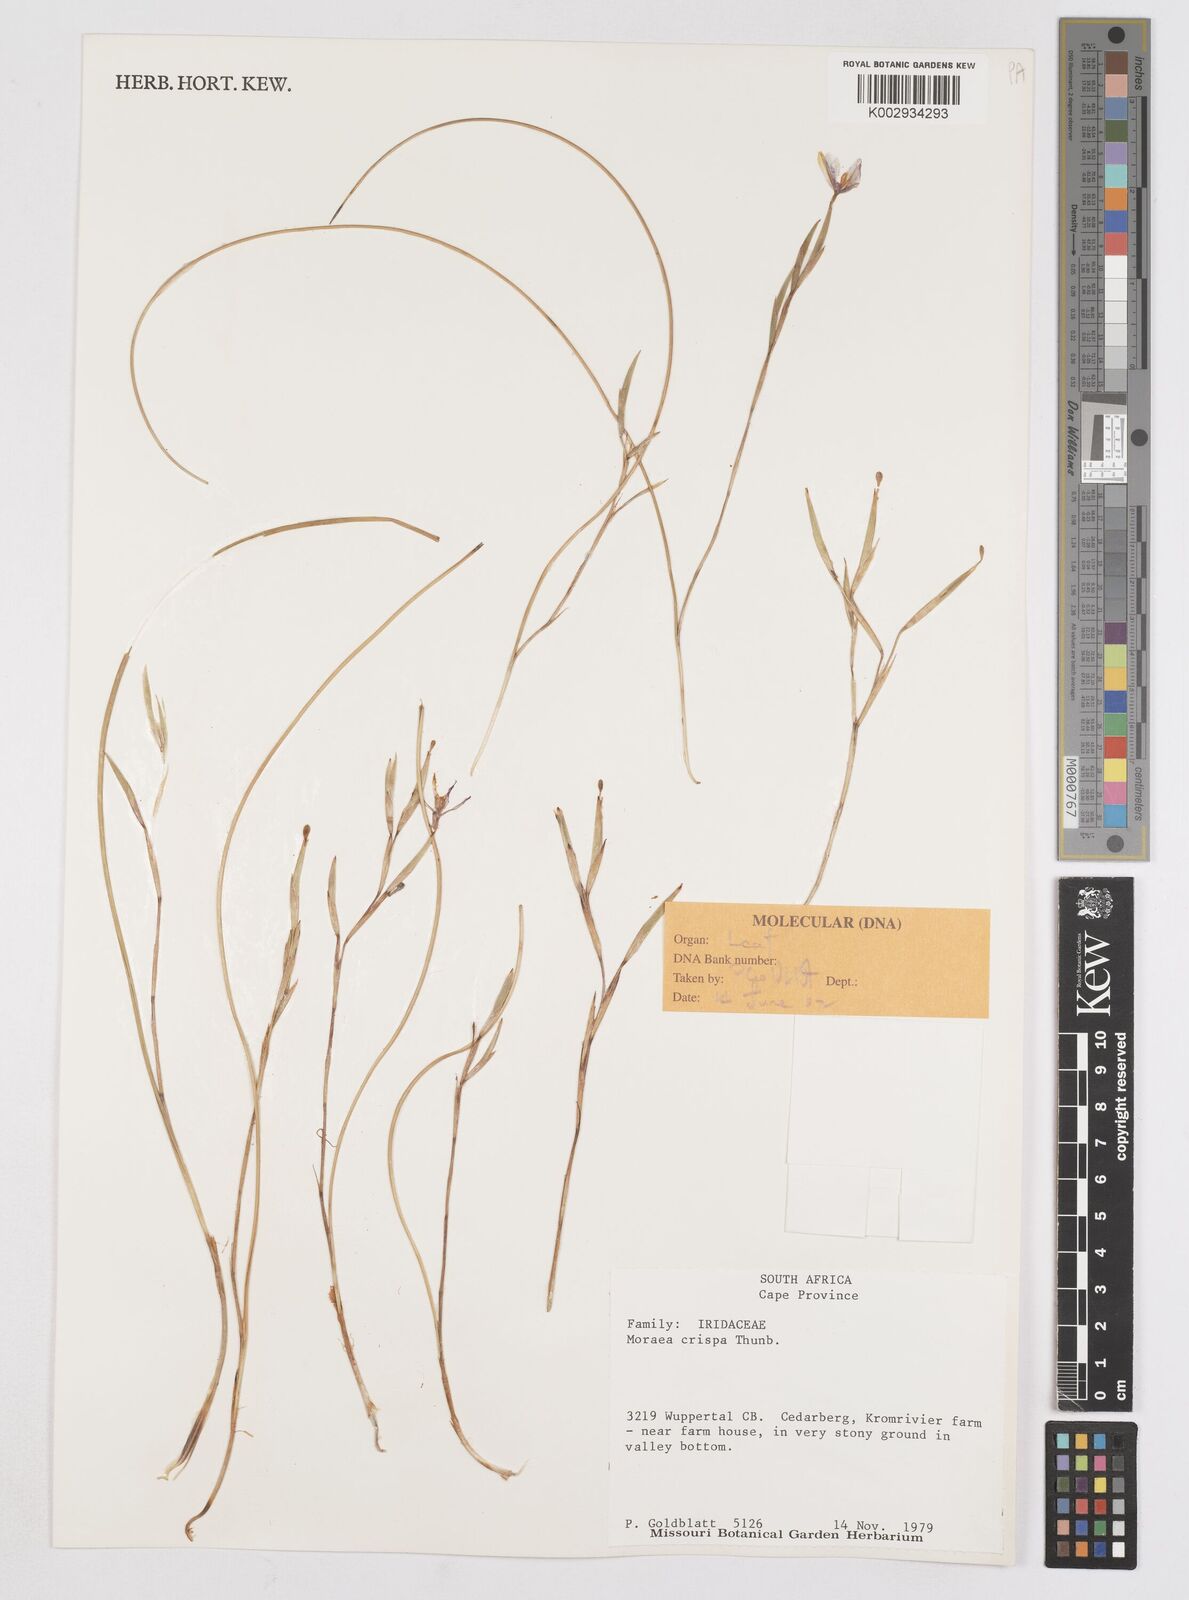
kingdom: Plantae
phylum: Tracheophyta
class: Liliopsida
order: Asparagales
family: Iridaceae
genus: Moraea
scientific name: Moraea crispa
